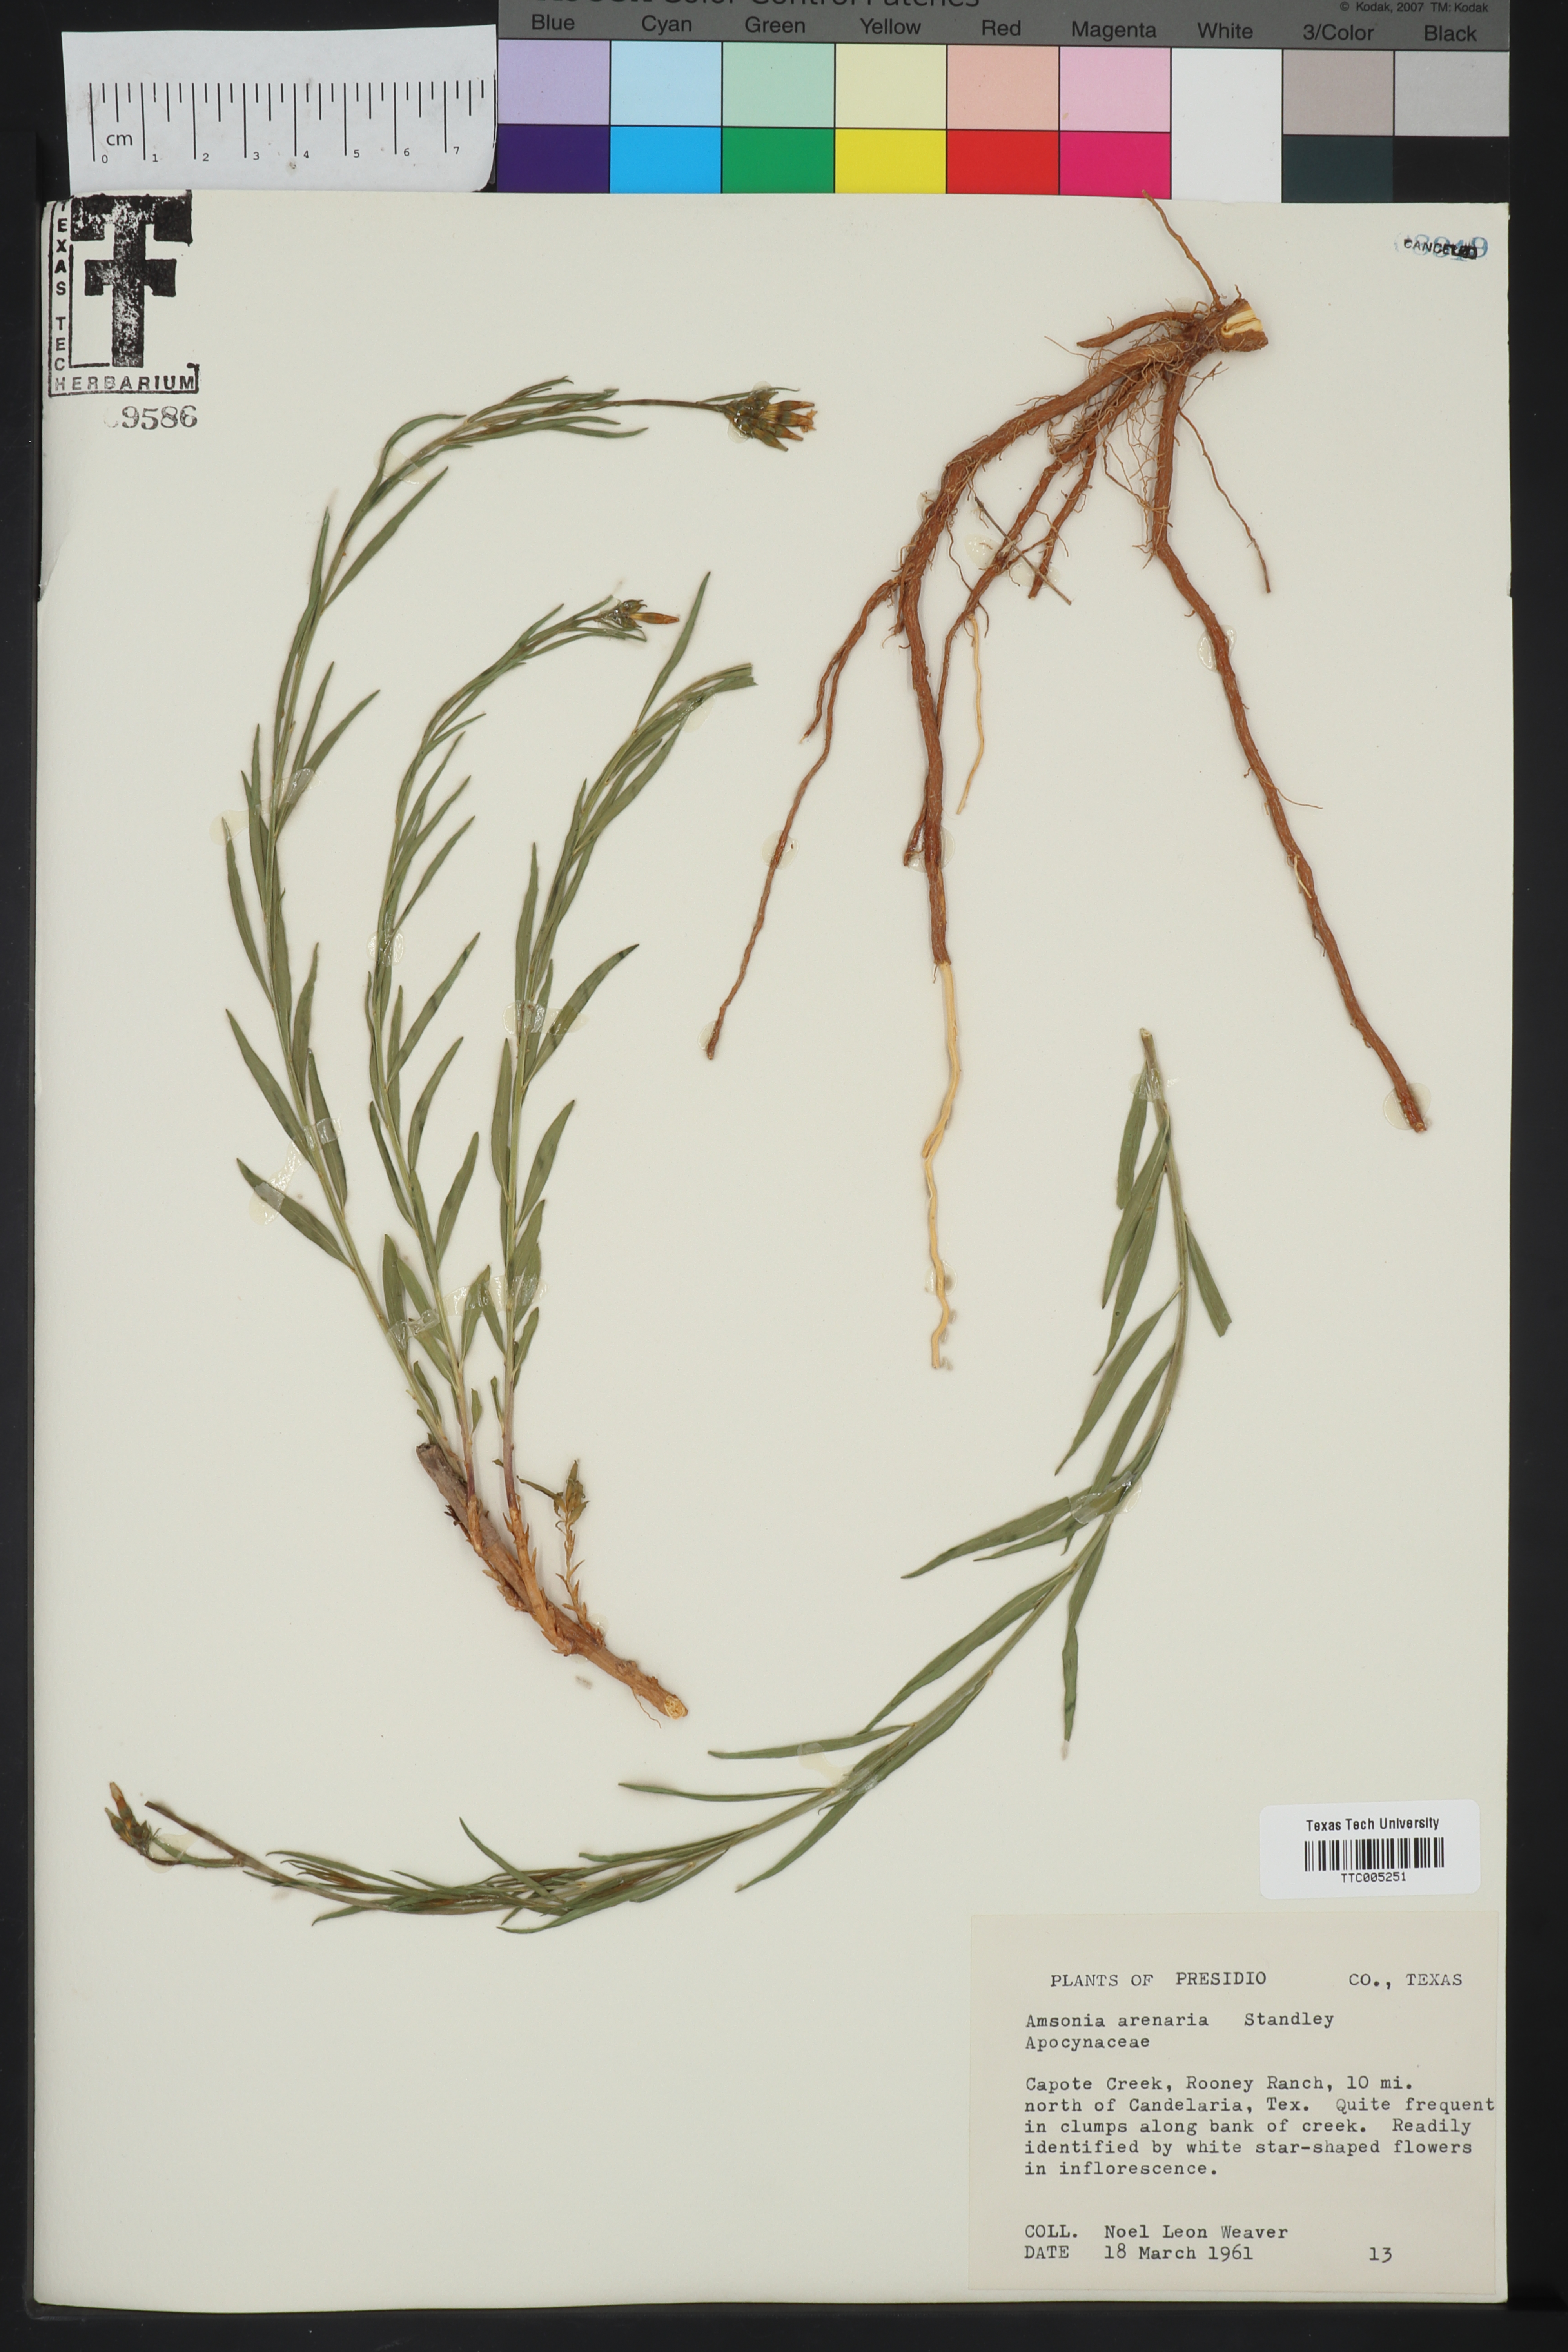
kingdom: Plantae
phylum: Tracheophyta
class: Magnoliopsida
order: Gentianales
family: Apocynaceae
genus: Amsonia
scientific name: Amsonia tomentosa
